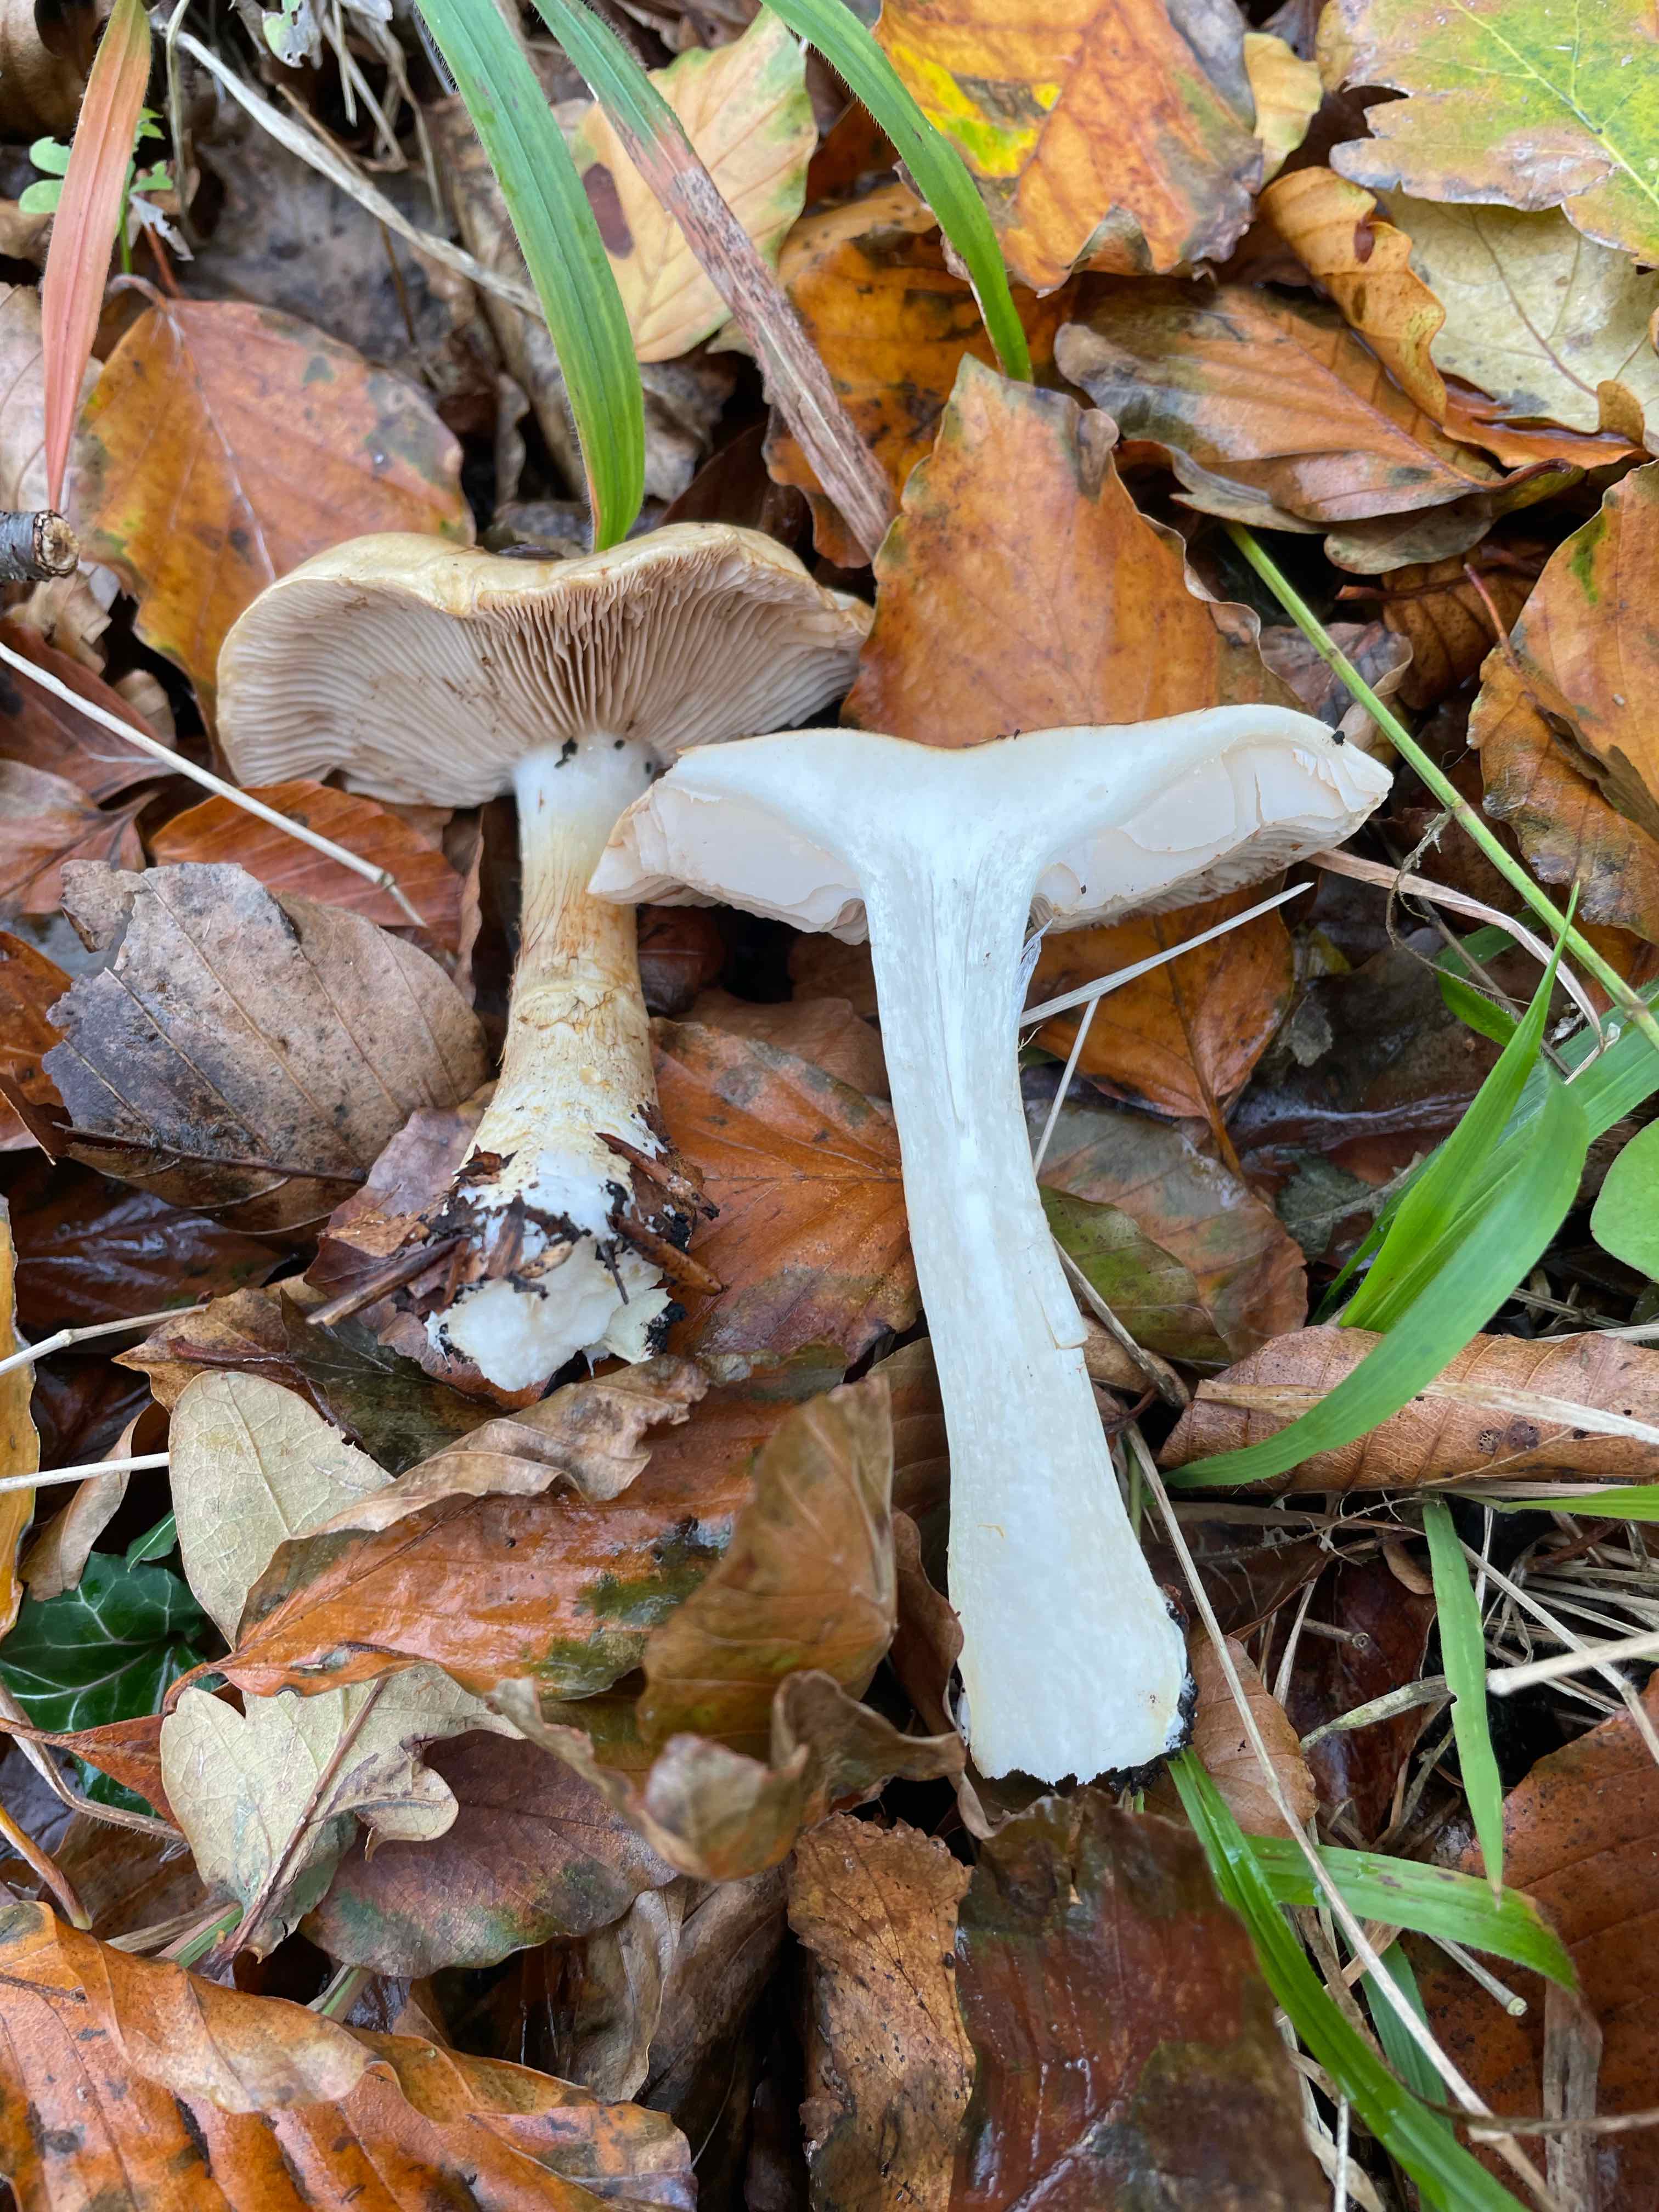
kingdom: Fungi
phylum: Basidiomycota
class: Agaricomycetes
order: Agaricales
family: Cortinariaceae
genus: Phlegmacium
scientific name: Phlegmacium cliduchus
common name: majs-slørhat
